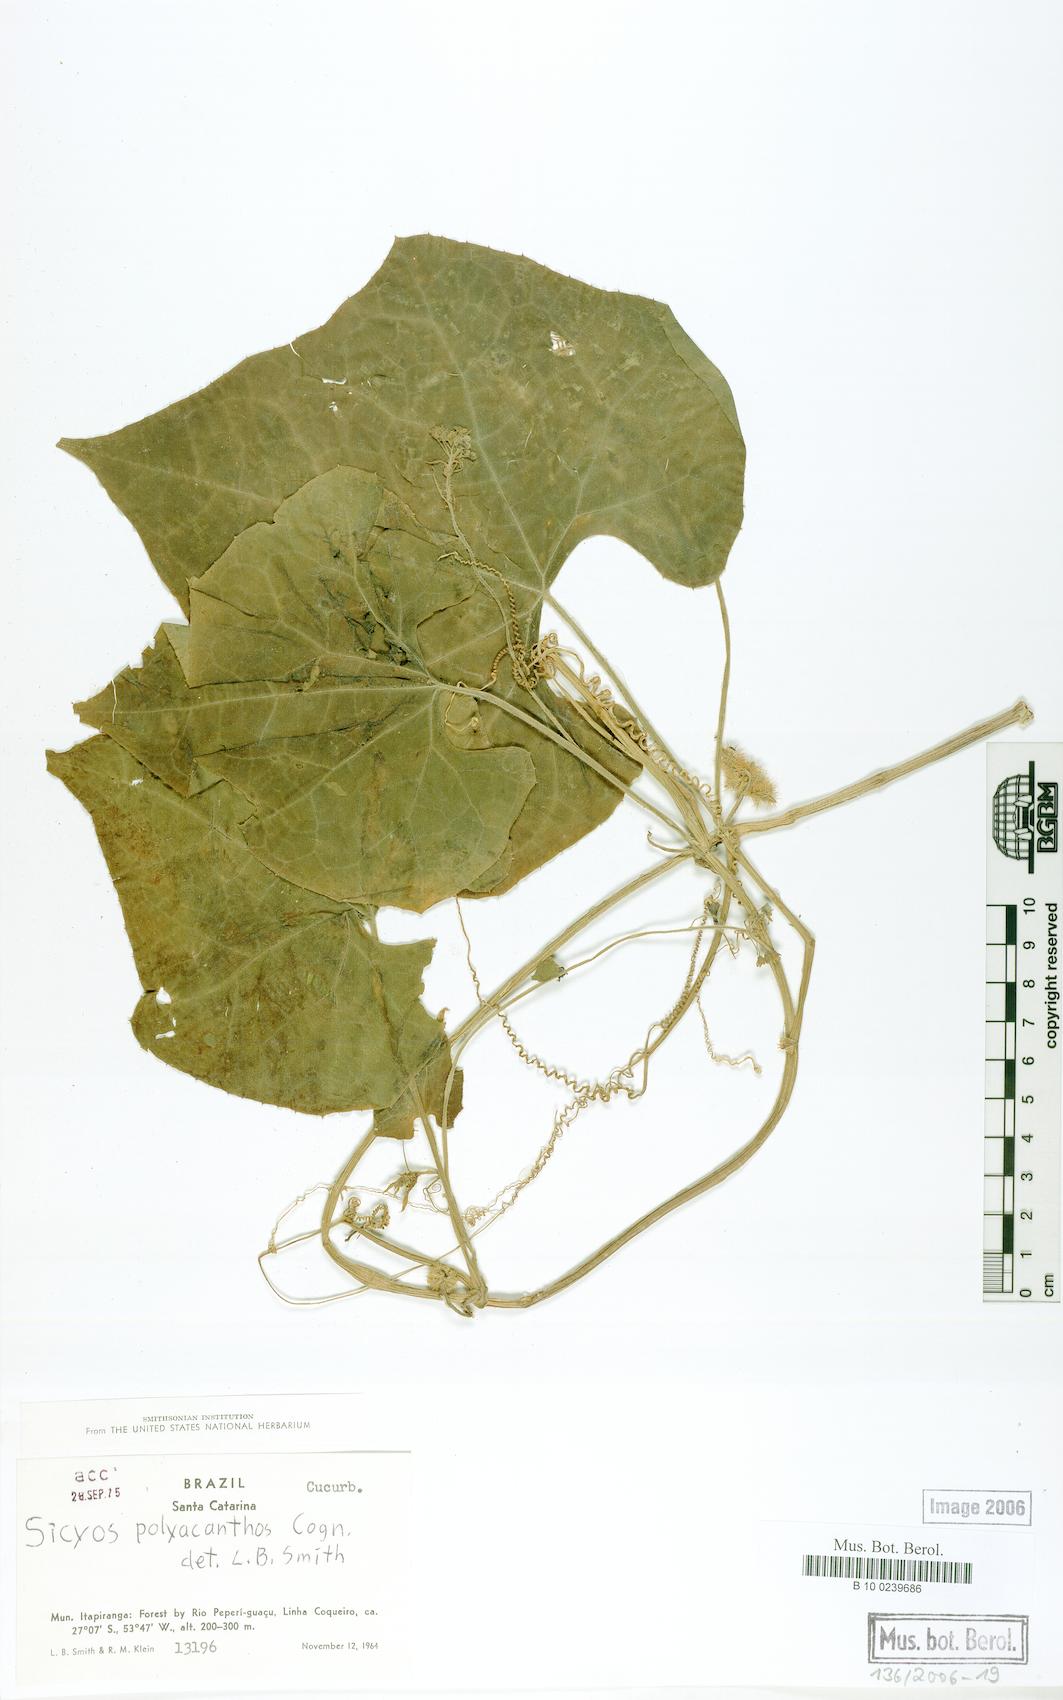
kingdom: Plantae
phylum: Tracheophyta
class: Magnoliopsida
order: Cucurbitales
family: Cucurbitaceae
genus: Sicyos
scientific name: Sicyos polyacanthos
